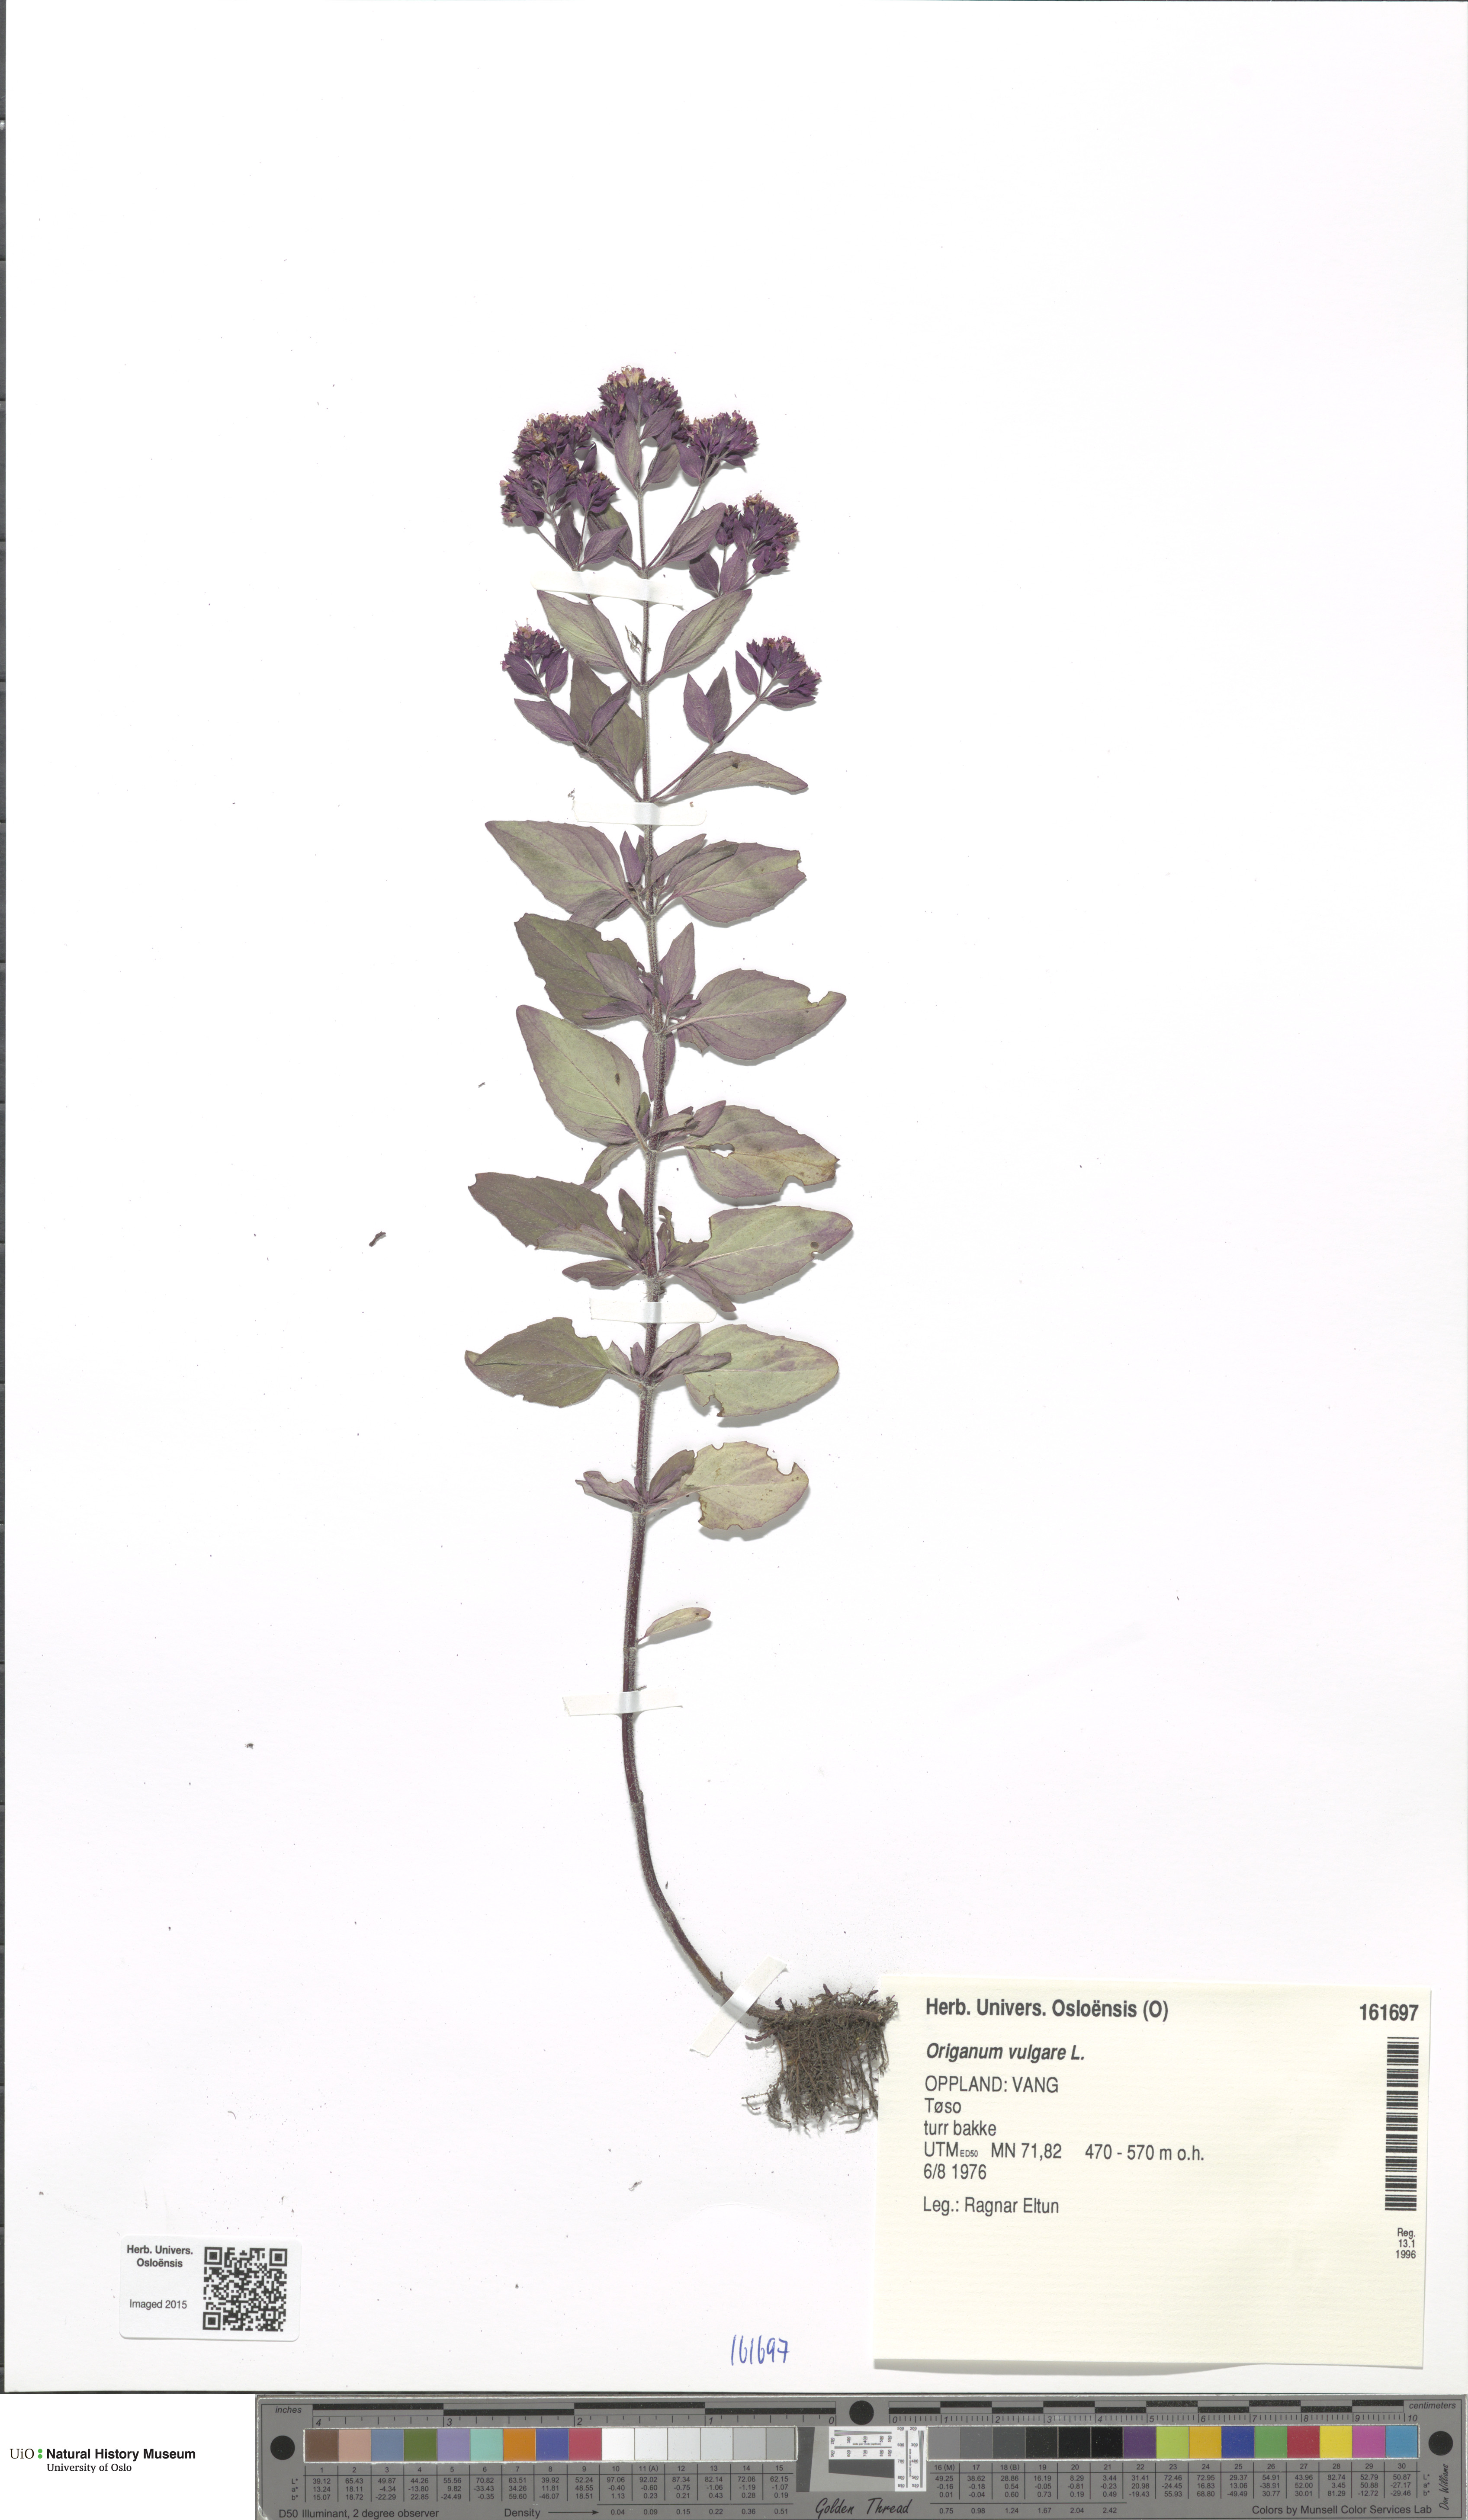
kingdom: Plantae
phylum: Tracheophyta
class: Magnoliopsida
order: Lamiales
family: Lamiaceae
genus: Origanum
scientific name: Origanum vulgare
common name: Wild marjoram
